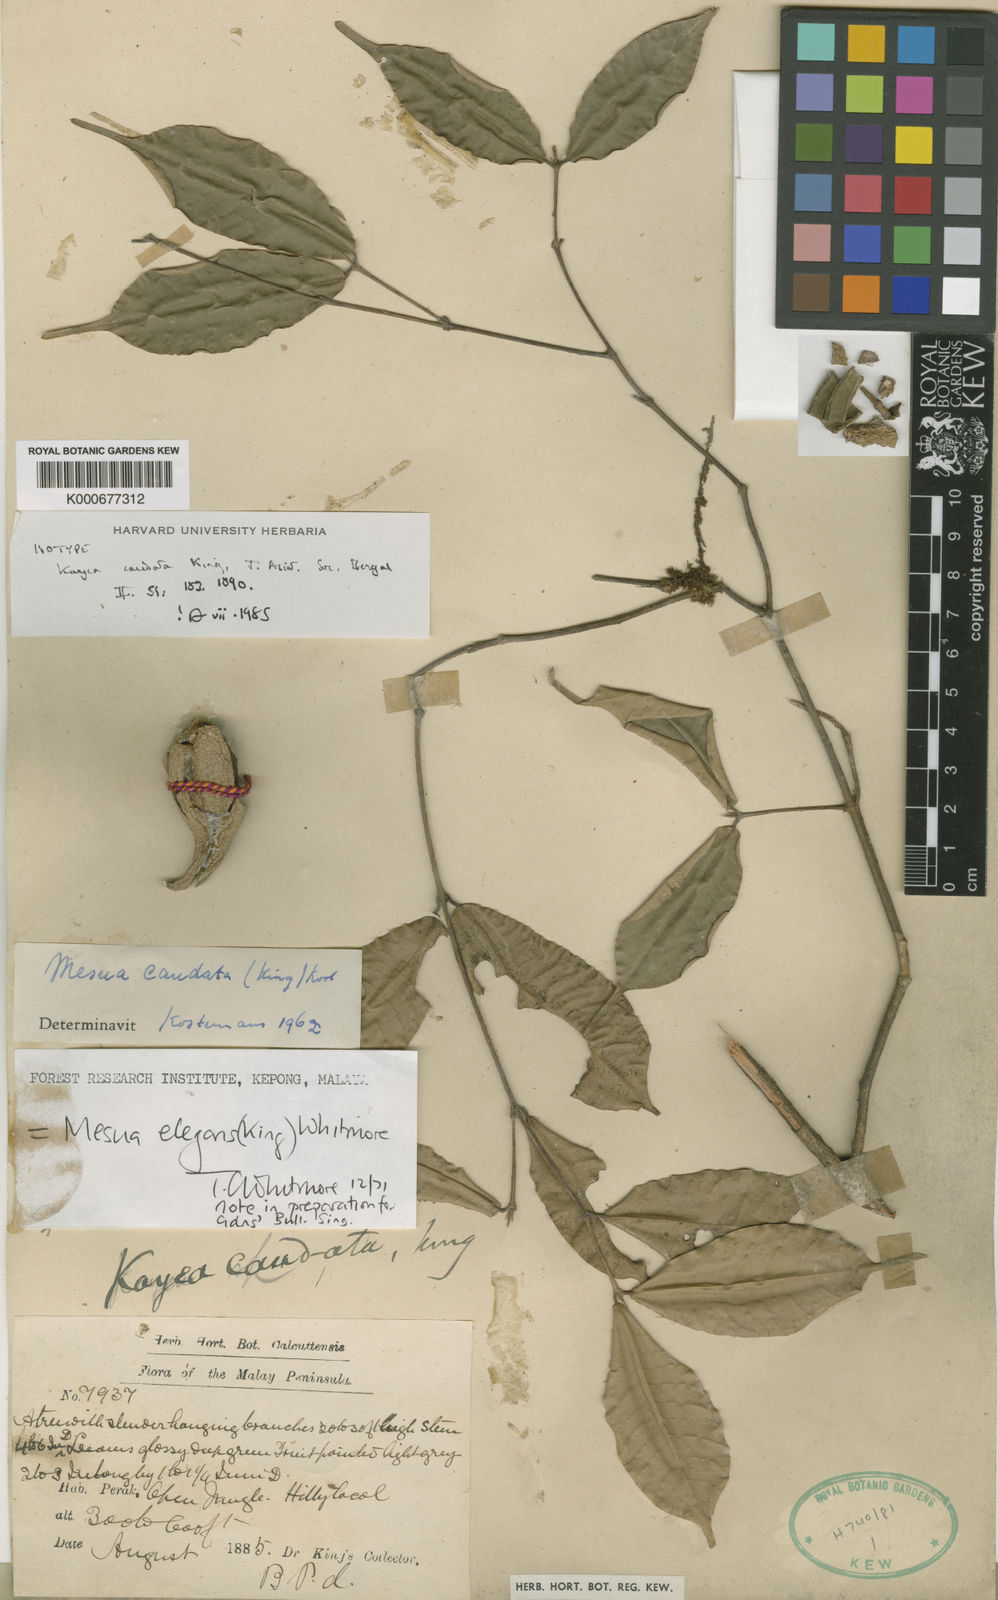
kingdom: Plantae
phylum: Tracheophyta
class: Magnoliopsida
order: Malpighiales
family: Calophyllaceae
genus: Kayea
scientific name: Kayea kunstleri
